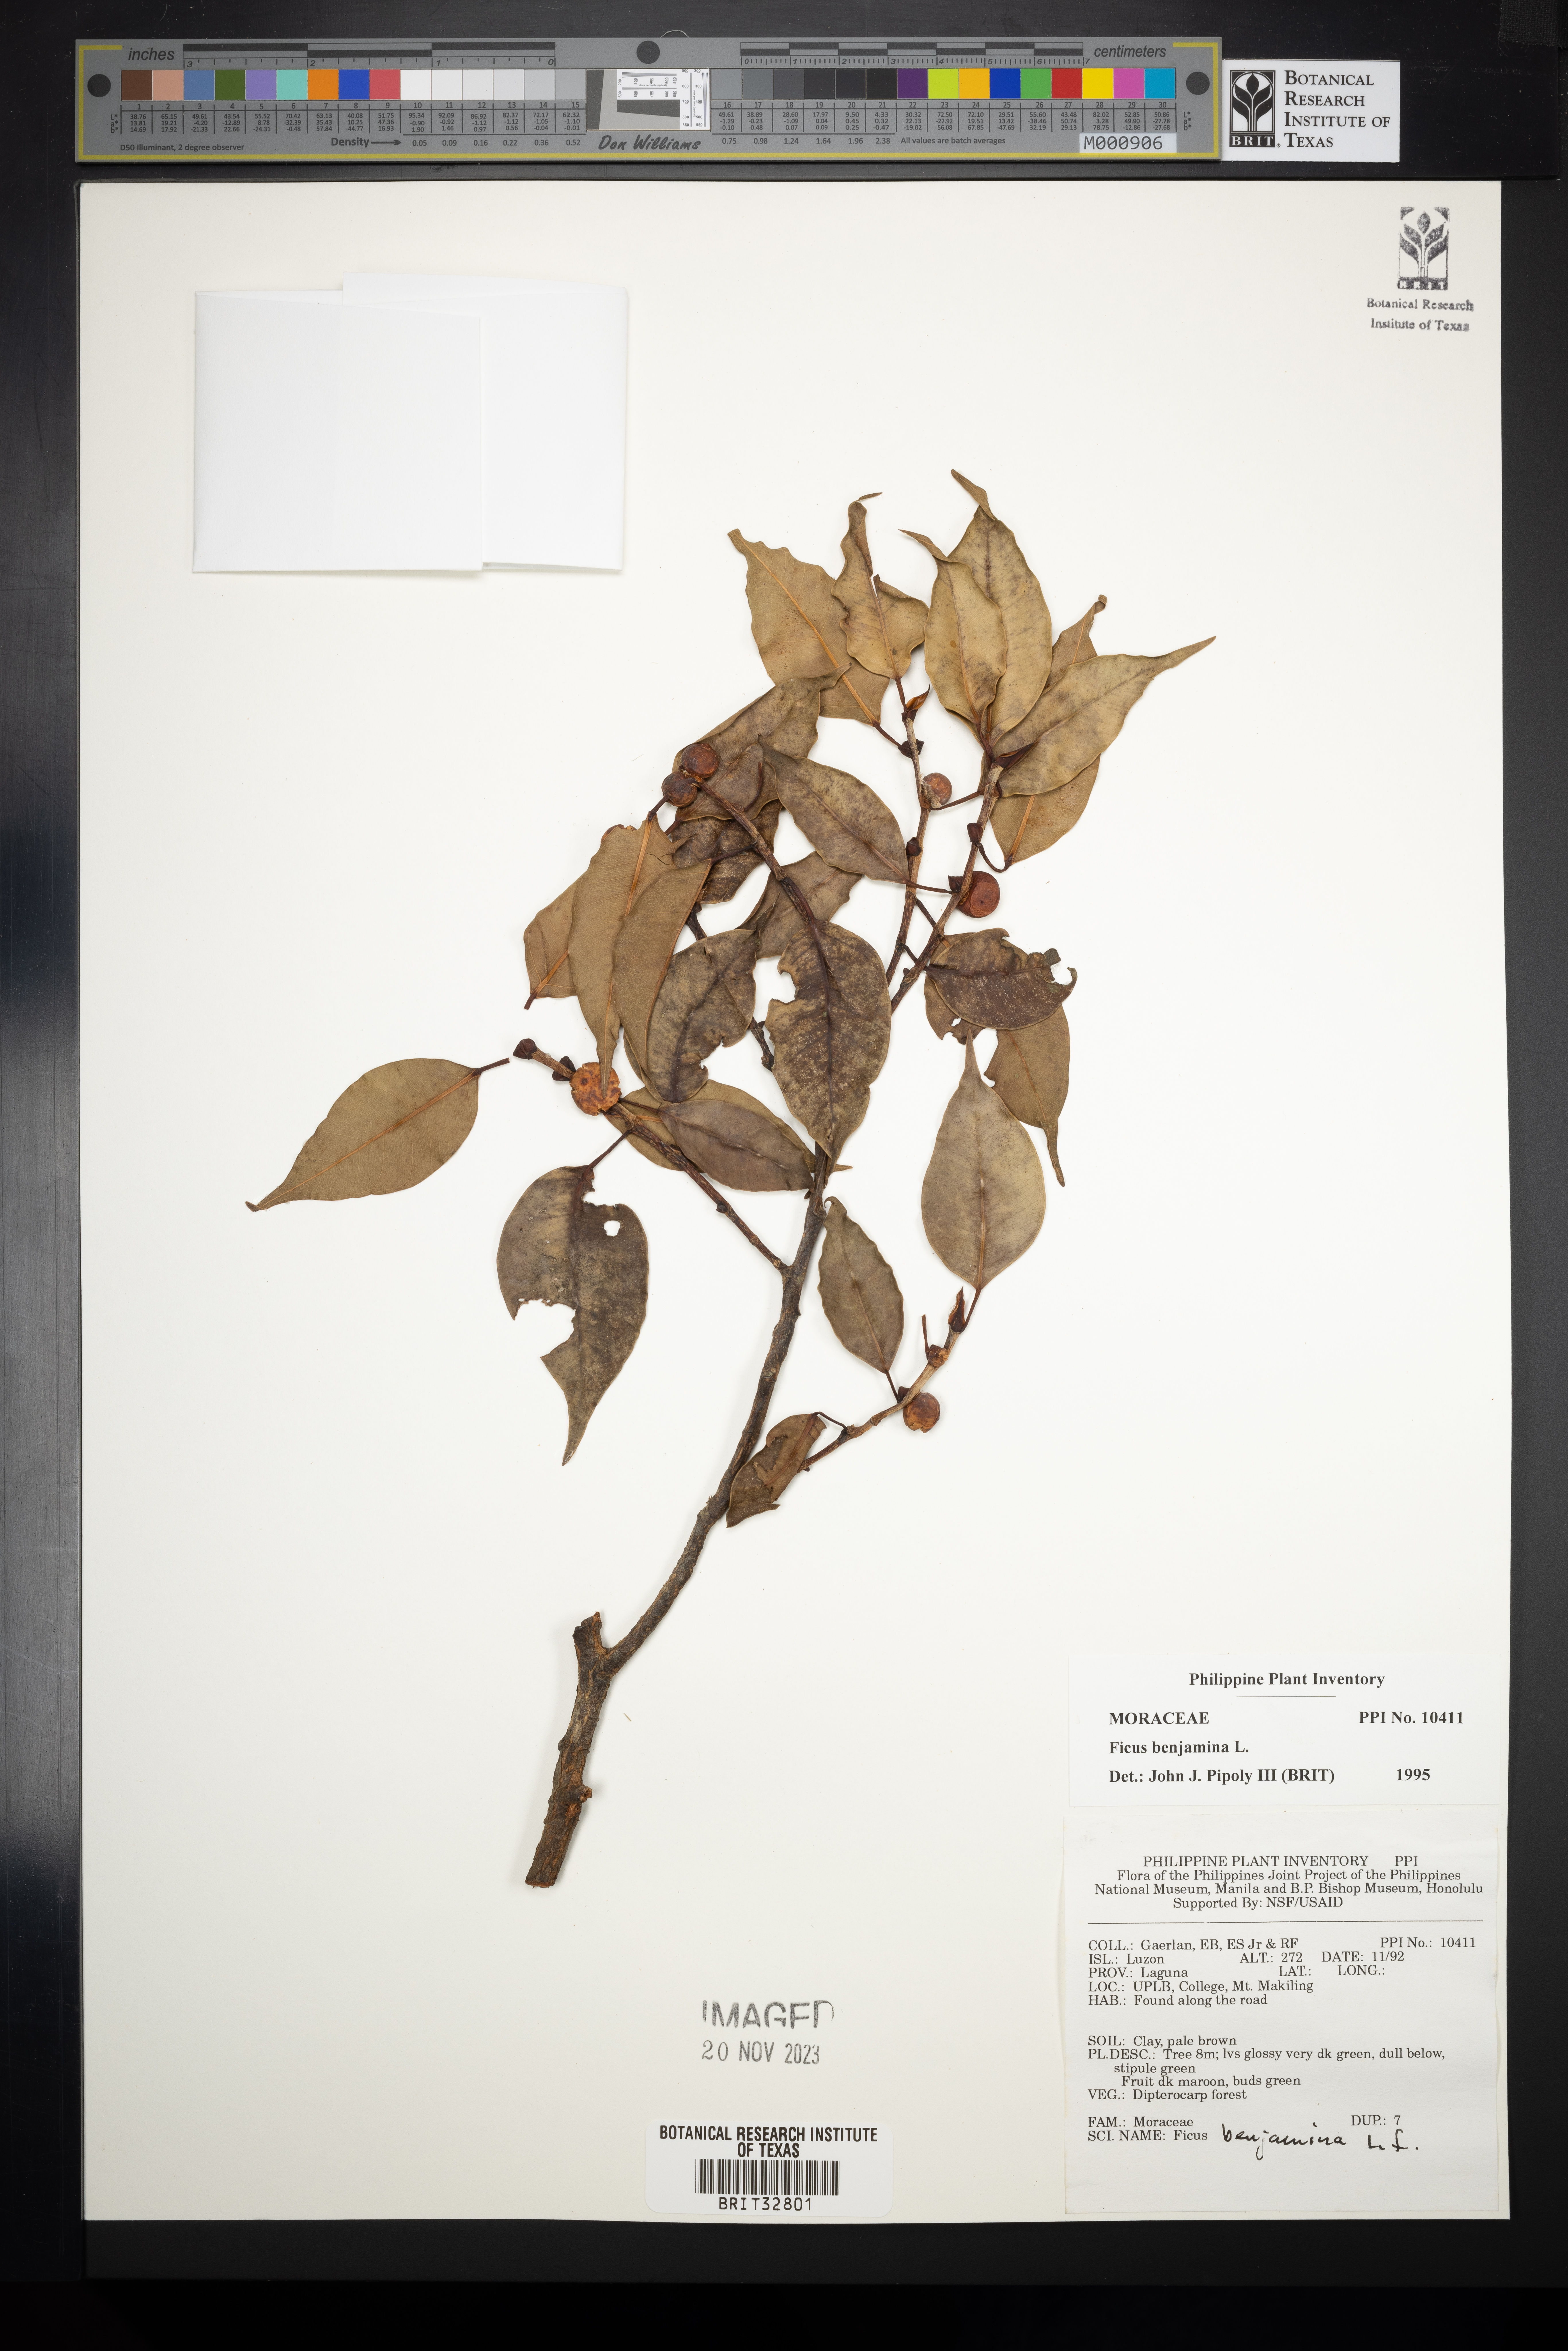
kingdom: Plantae
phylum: Tracheophyta
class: Magnoliopsida
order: Rosales
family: Moraceae
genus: Ficus
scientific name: Ficus benjamina
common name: Weeping fig
